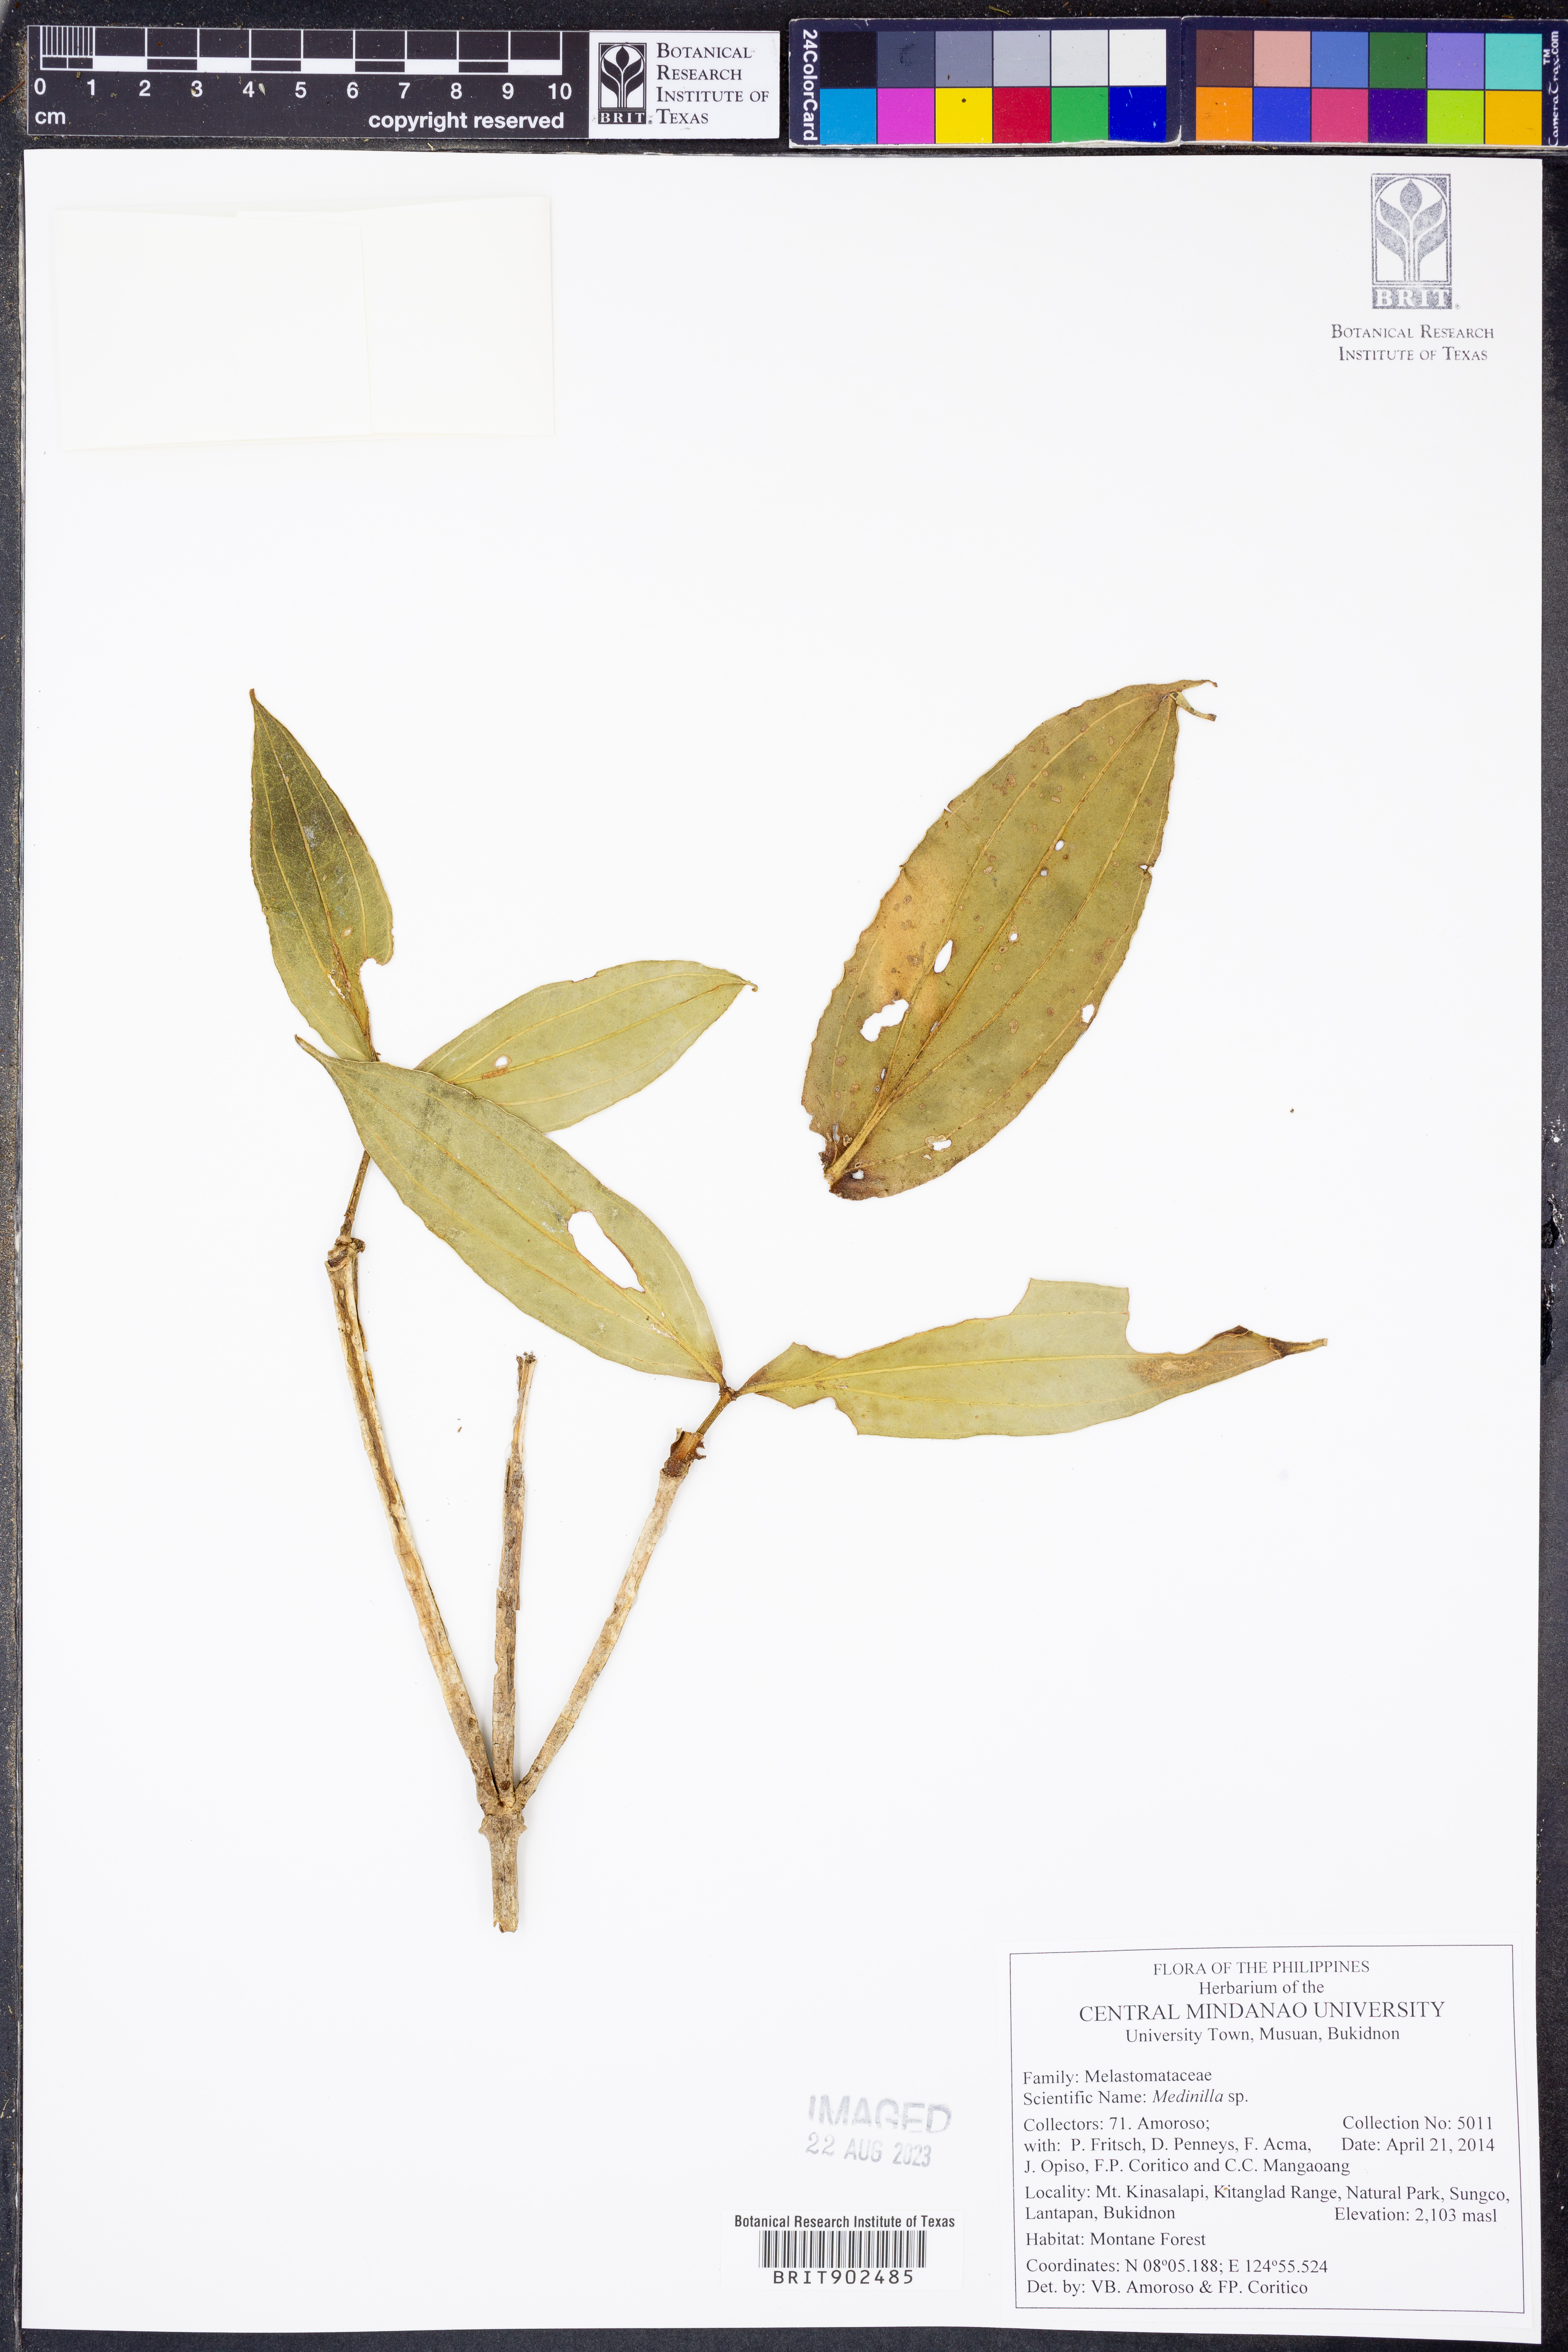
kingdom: Plantae
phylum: Tracheophyta
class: Magnoliopsida
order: Myrtales
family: Melastomataceae
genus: Medinilla
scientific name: Medinilla
